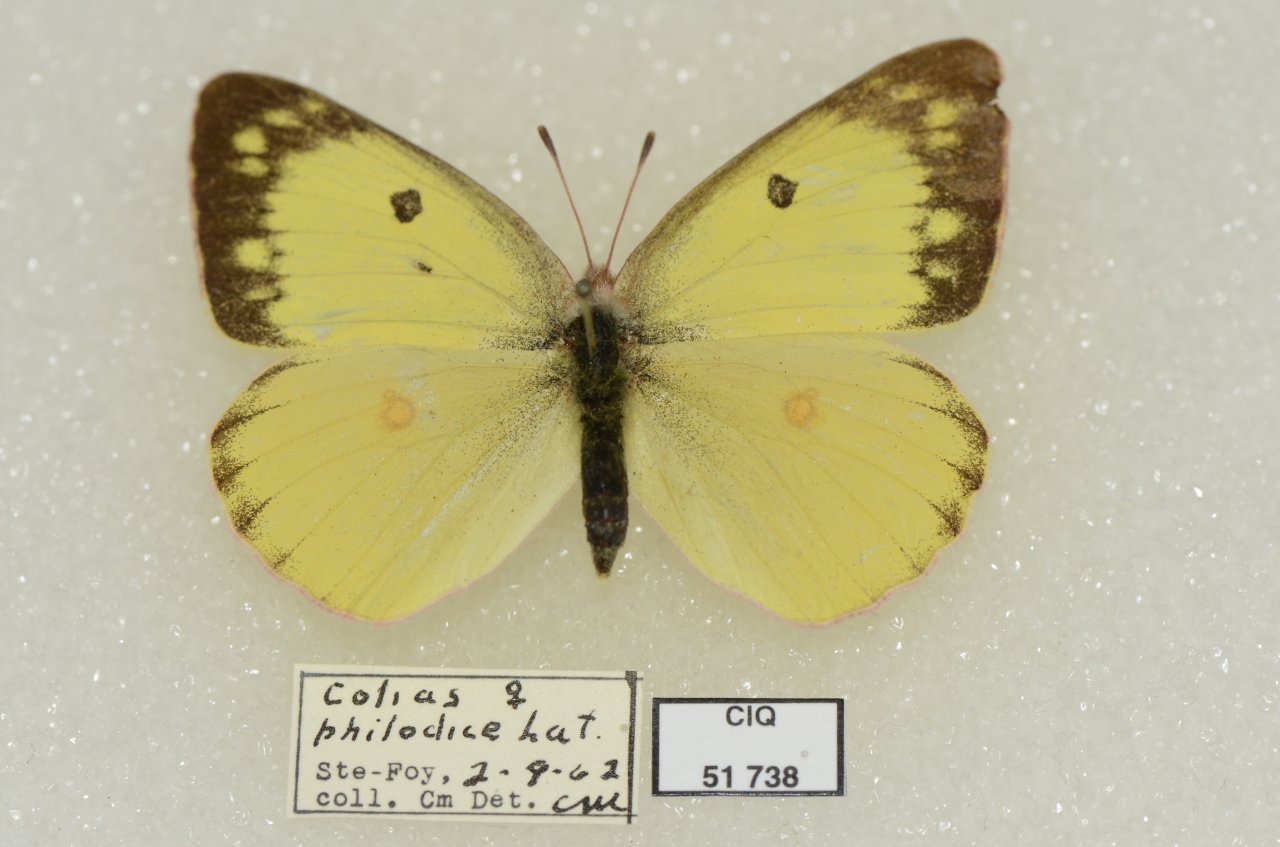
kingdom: Animalia
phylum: Arthropoda
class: Insecta
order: Lepidoptera
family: Pieridae
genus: Colias
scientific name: Colias philodice
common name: Clouded Sulphur
